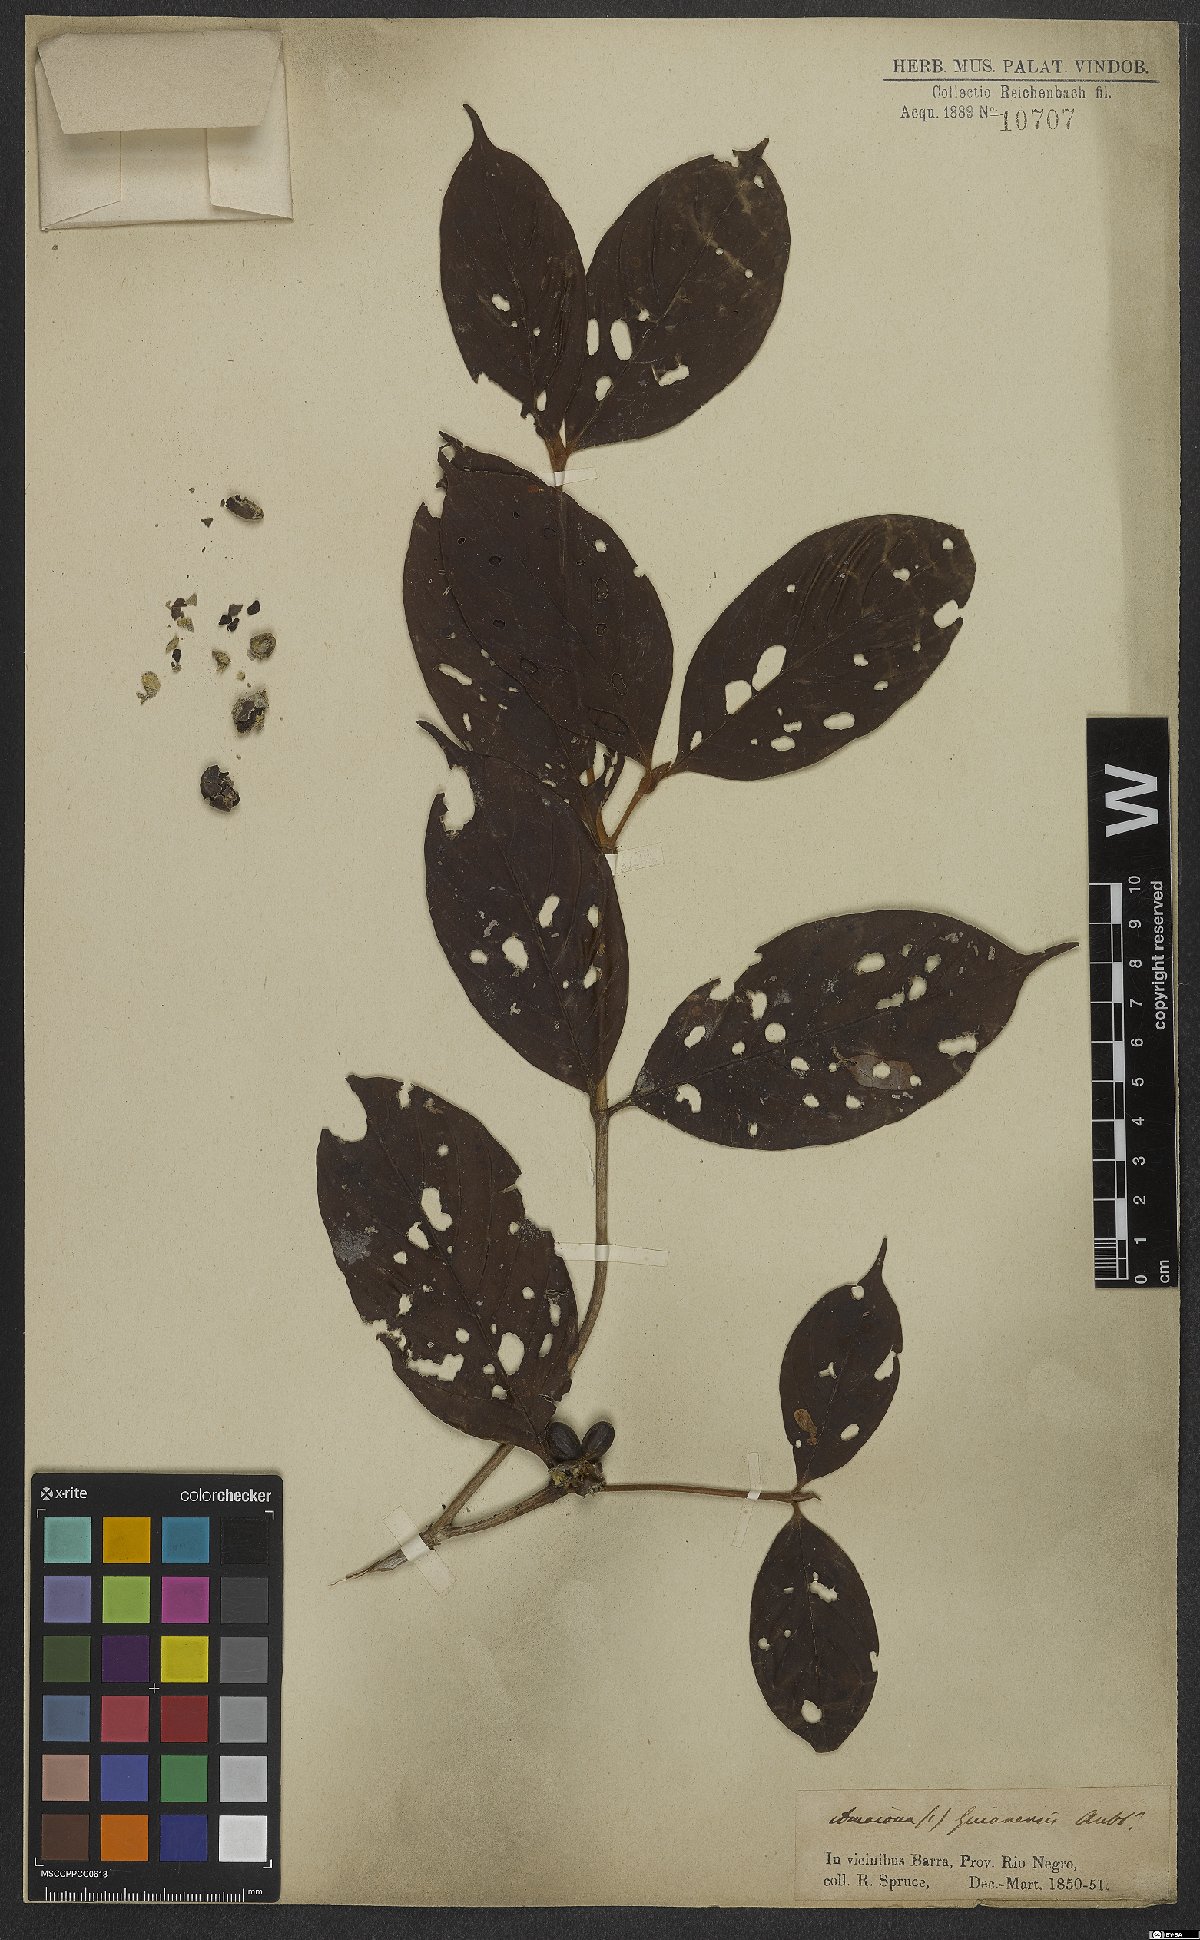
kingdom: Plantae
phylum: Tracheophyta
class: Magnoliopsida
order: Gentianales
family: Rubiaceae
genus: Amaioua
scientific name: Amaioua guianensis
